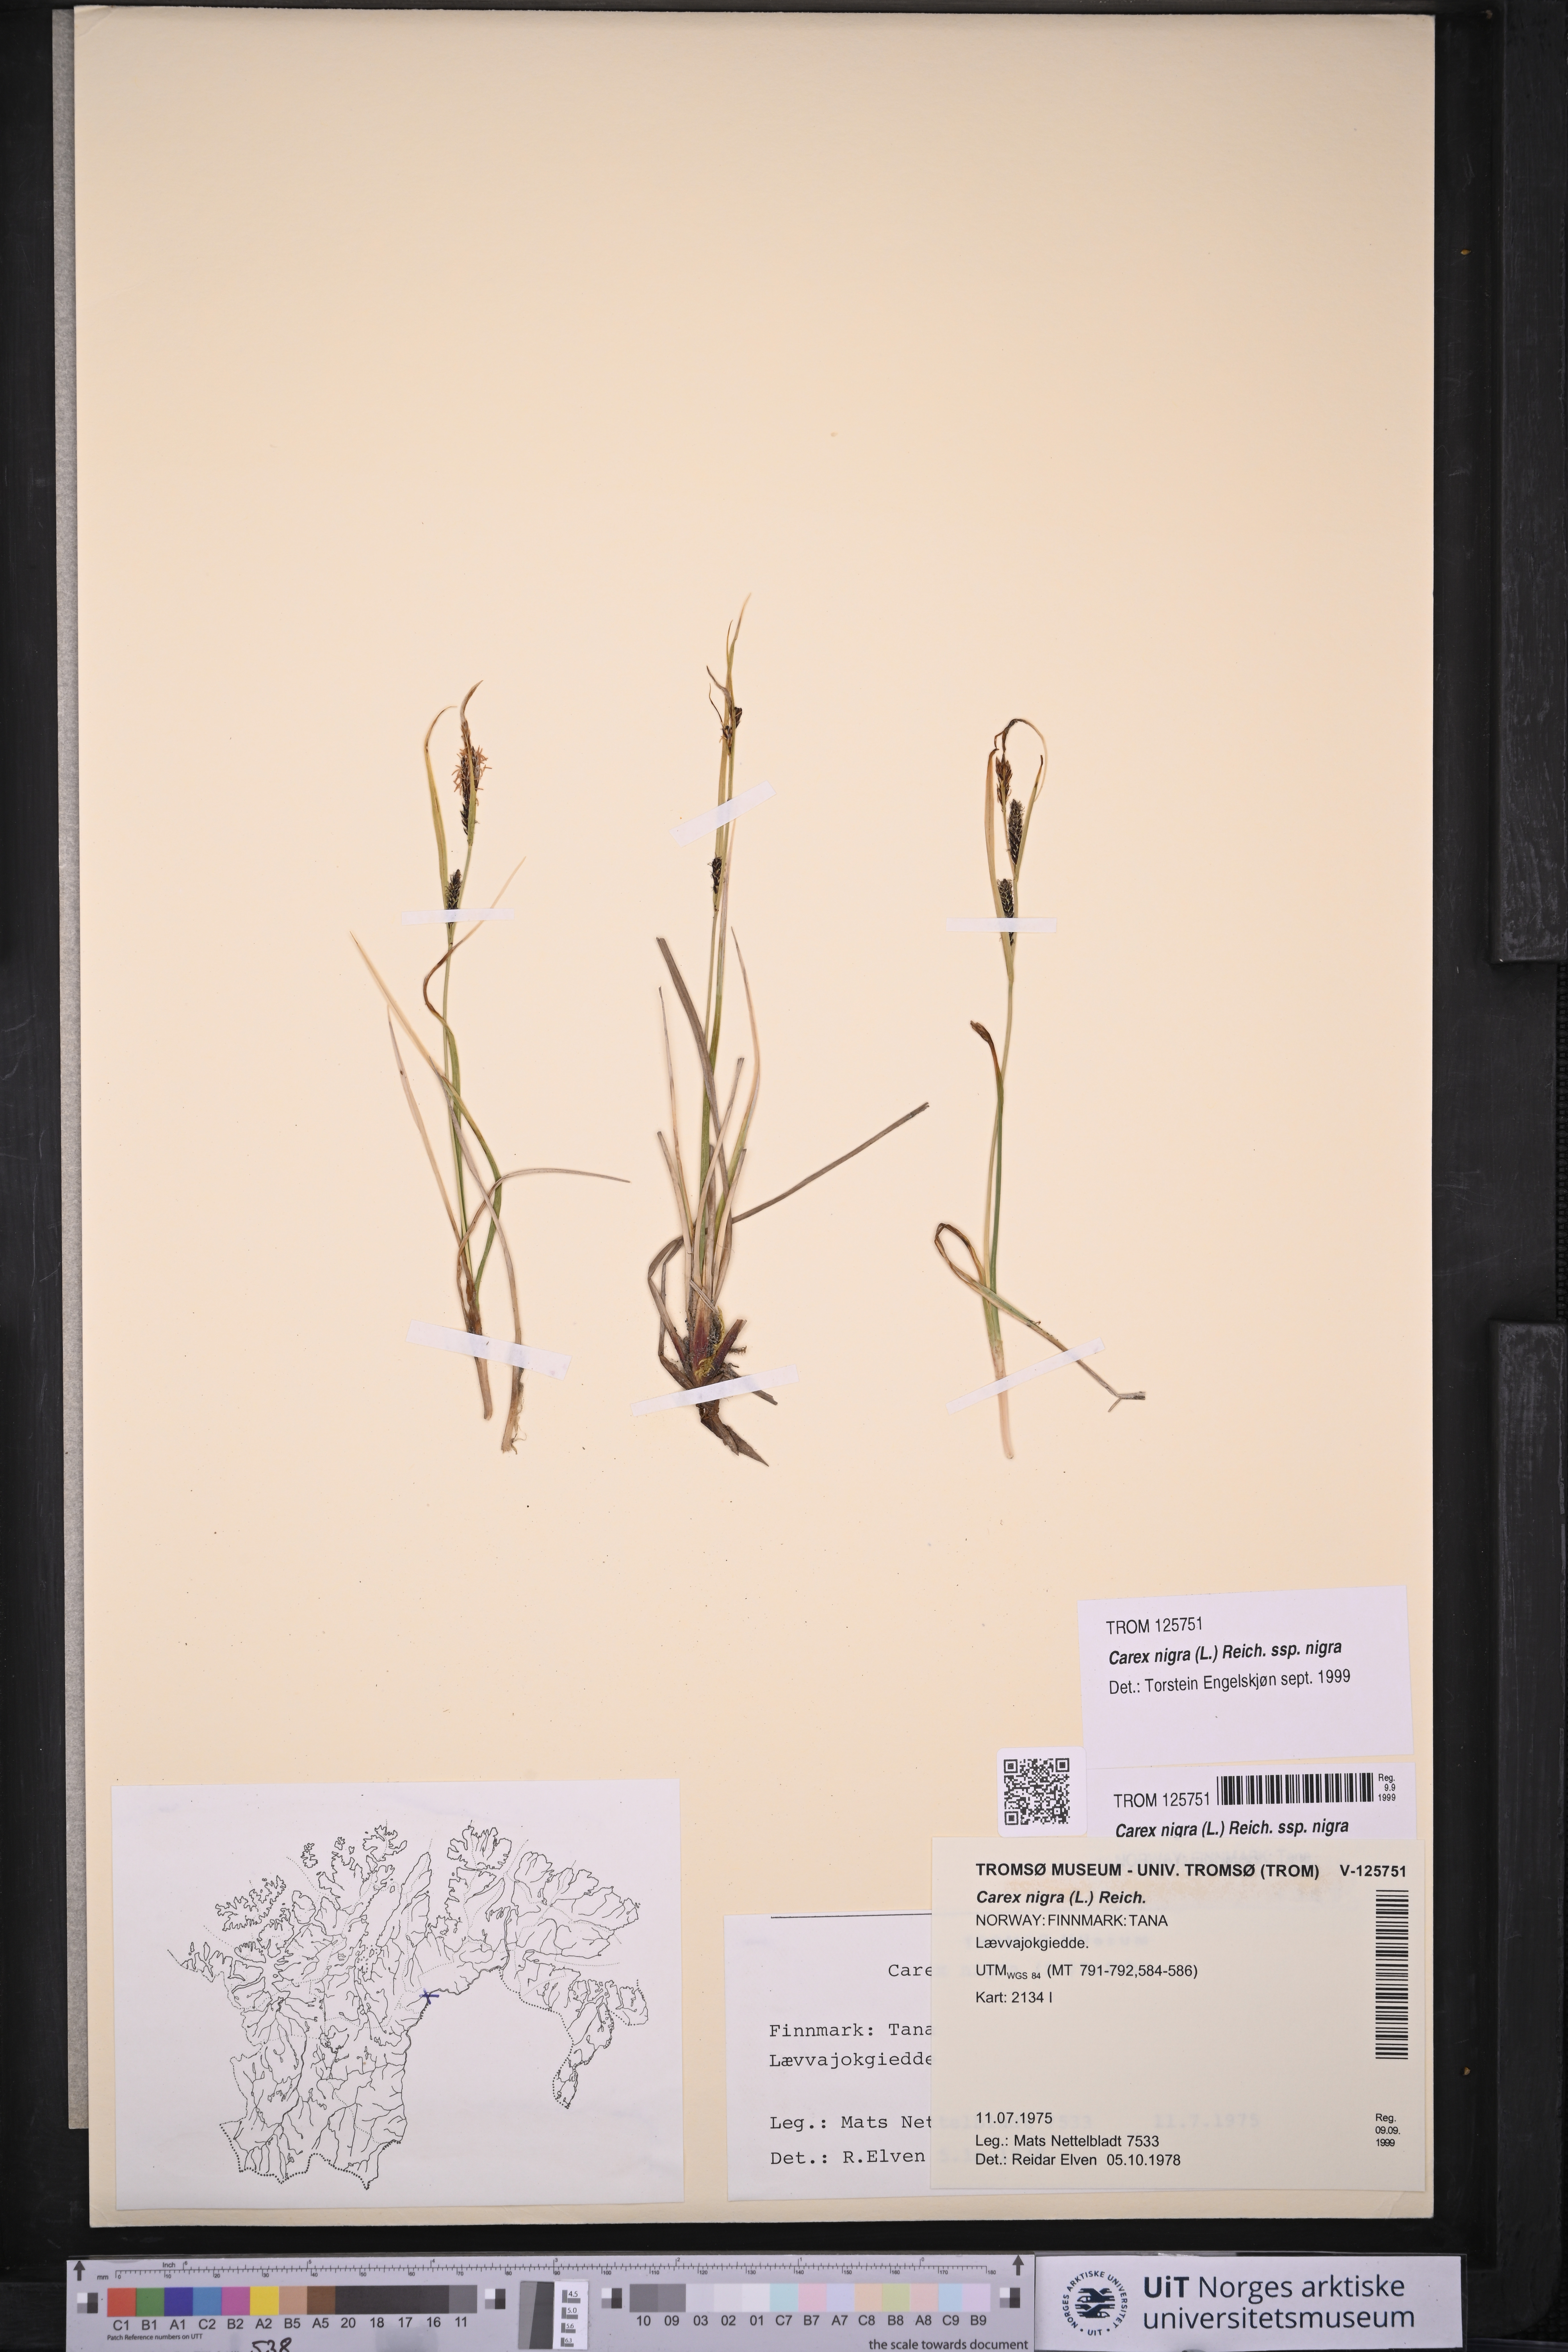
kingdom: Plantae
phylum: Tracheophyta
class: Liliopsida
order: Poales
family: Cyperaceae
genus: Carex
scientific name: Carex nigra
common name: Common sedge
